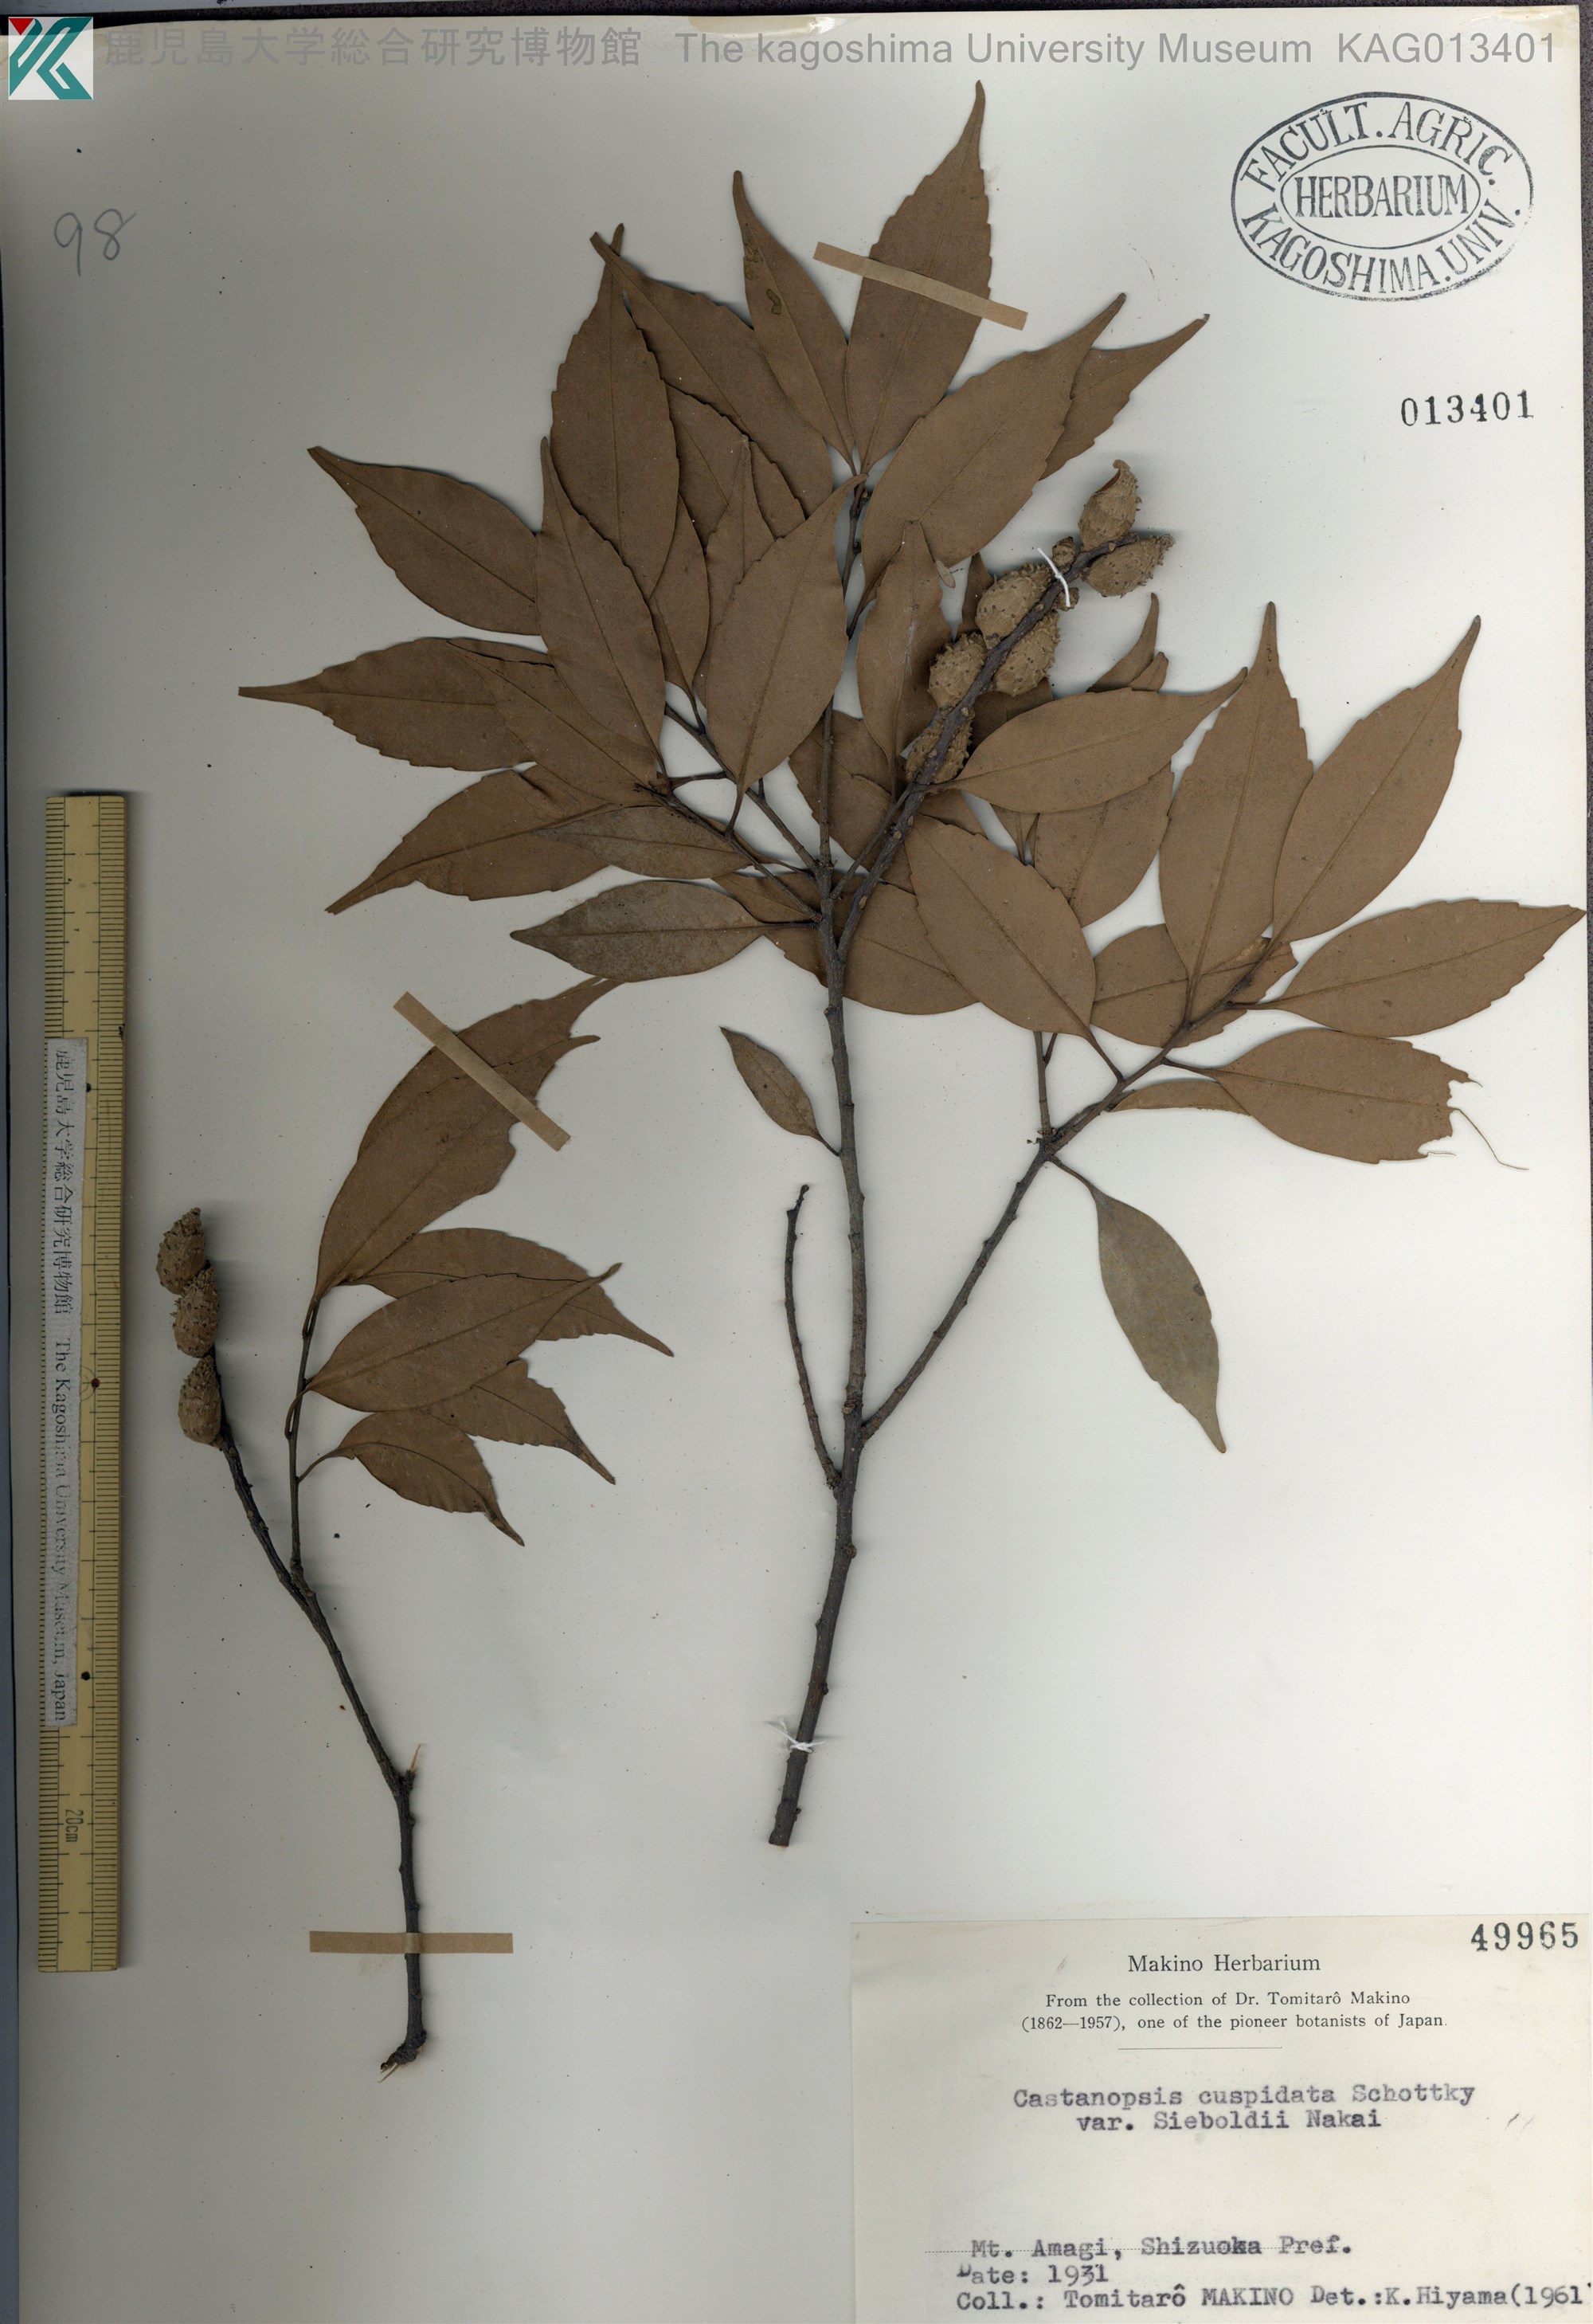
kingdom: Plantae
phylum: Tracheophyta
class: Magnoliopsida
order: Fagales
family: Fagaceae
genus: Castanopsis
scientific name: Castanopsis sieboldii
